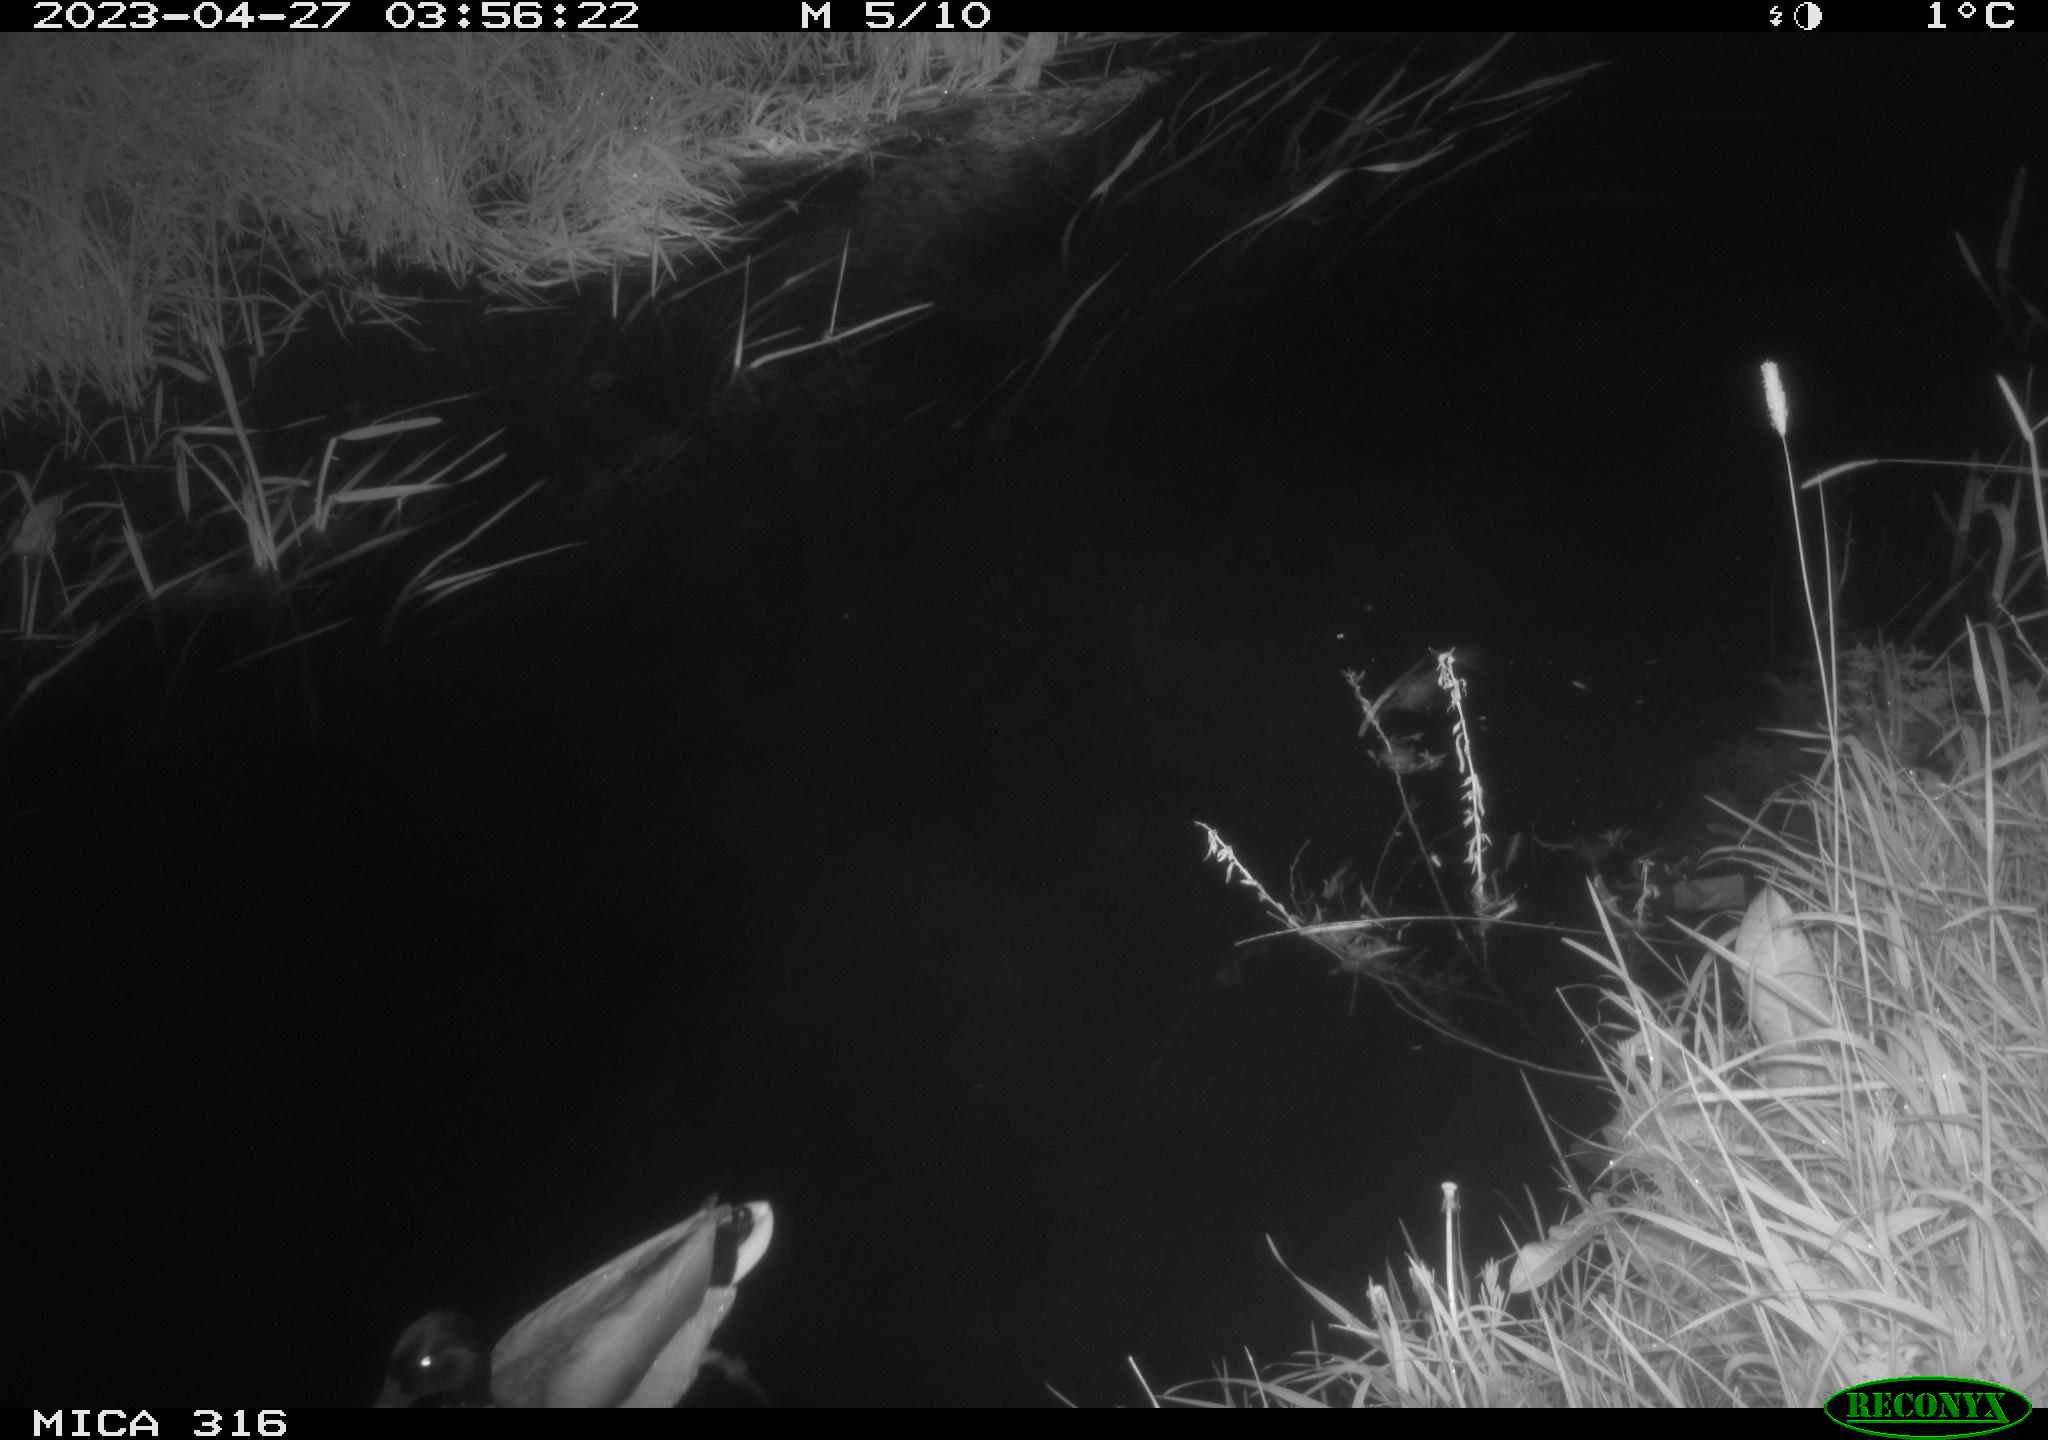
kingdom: Animalia
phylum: Chordata
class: Aves
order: Anseriformes
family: Anatidae
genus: Anas
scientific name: Anas
